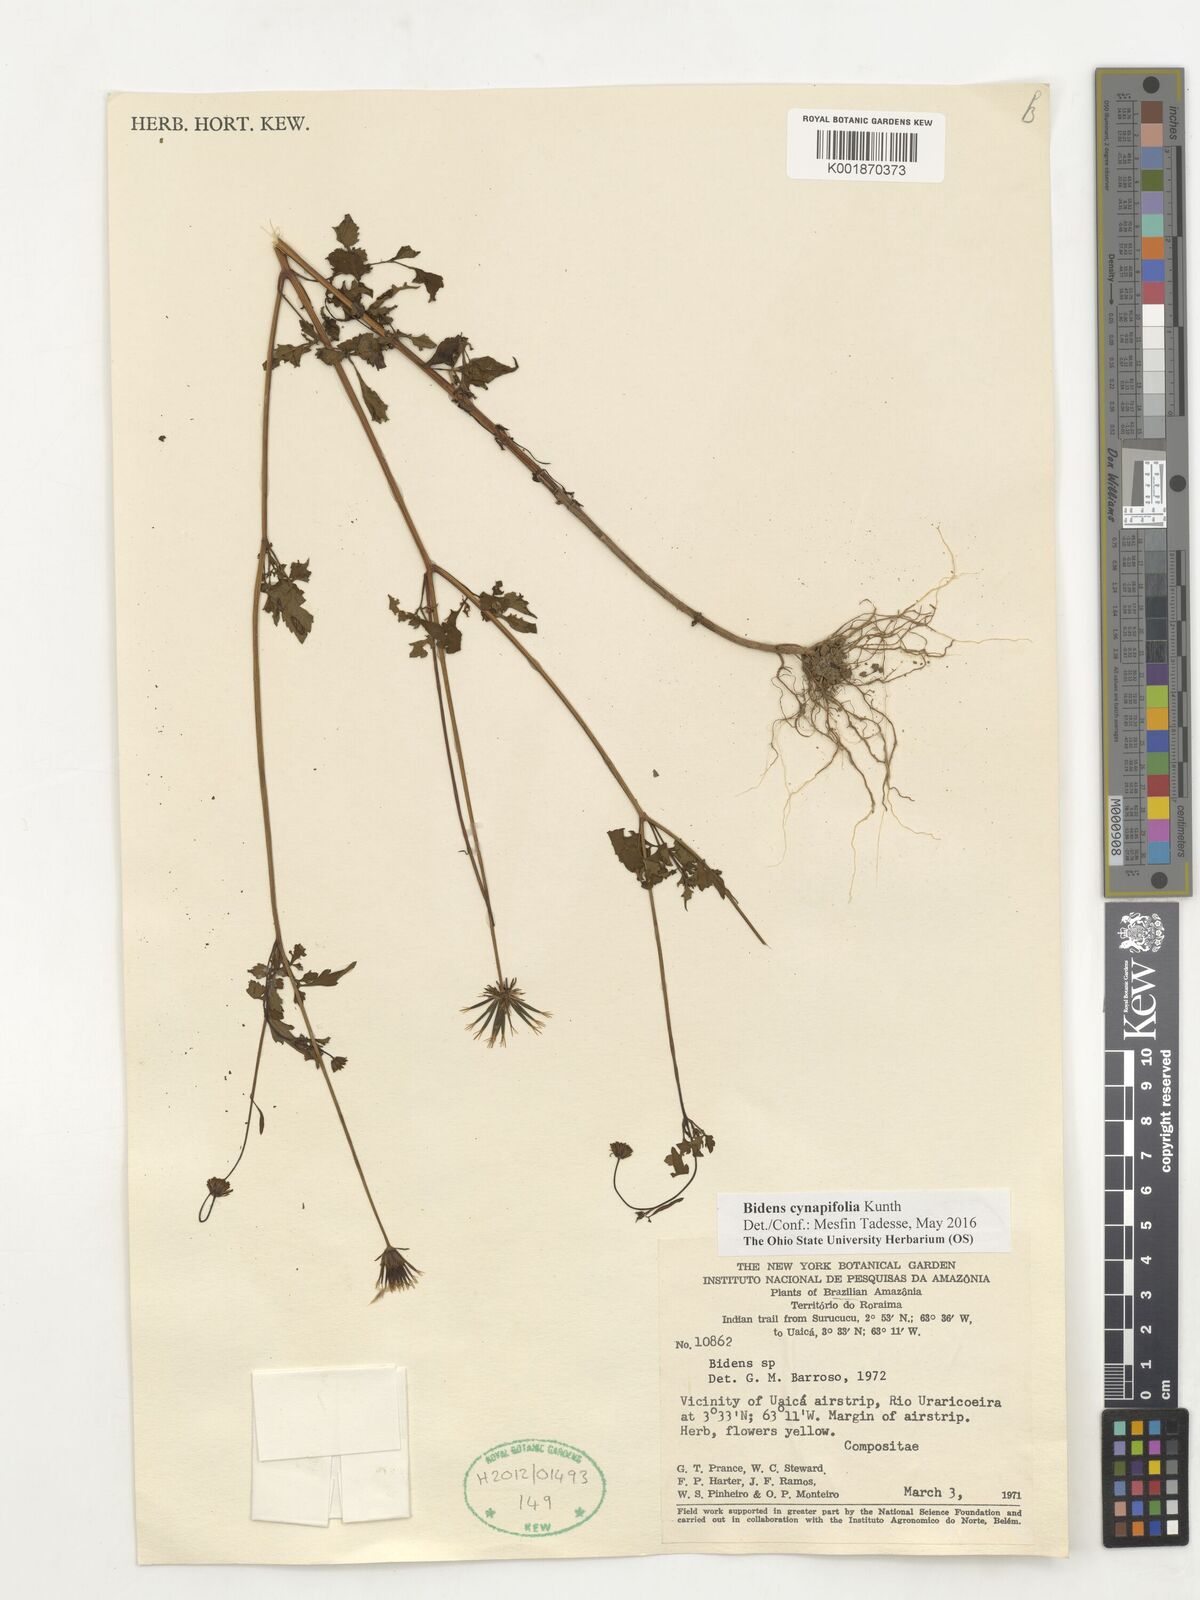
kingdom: Plantae
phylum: Tracheophyta
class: Magnoliopsida
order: Asterales
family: Asteraceae
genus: Bidens
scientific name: Bidens cynapiifolia
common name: Beggar's tick
